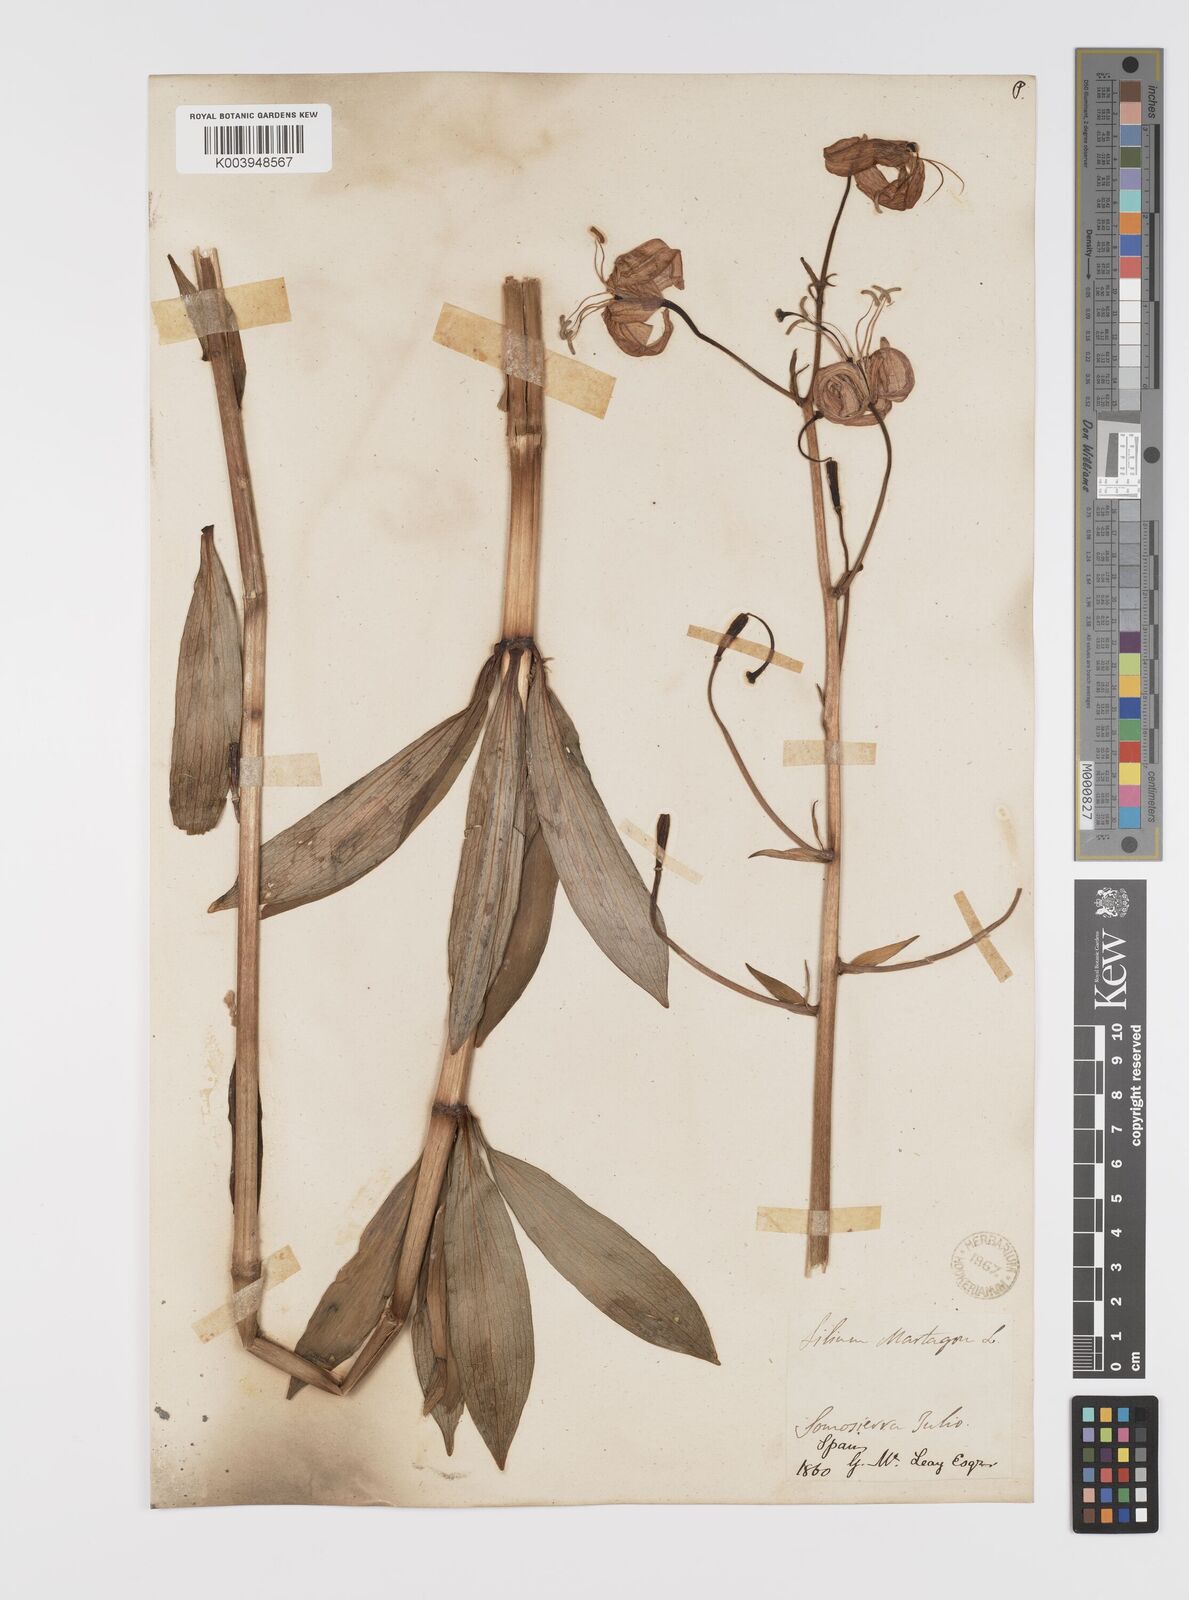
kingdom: Plantae
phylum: Tracheophyta
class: Liliopsida
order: Liliales
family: Liliaceae
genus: Lilium
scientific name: Lilium martagon
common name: Martagon lily
